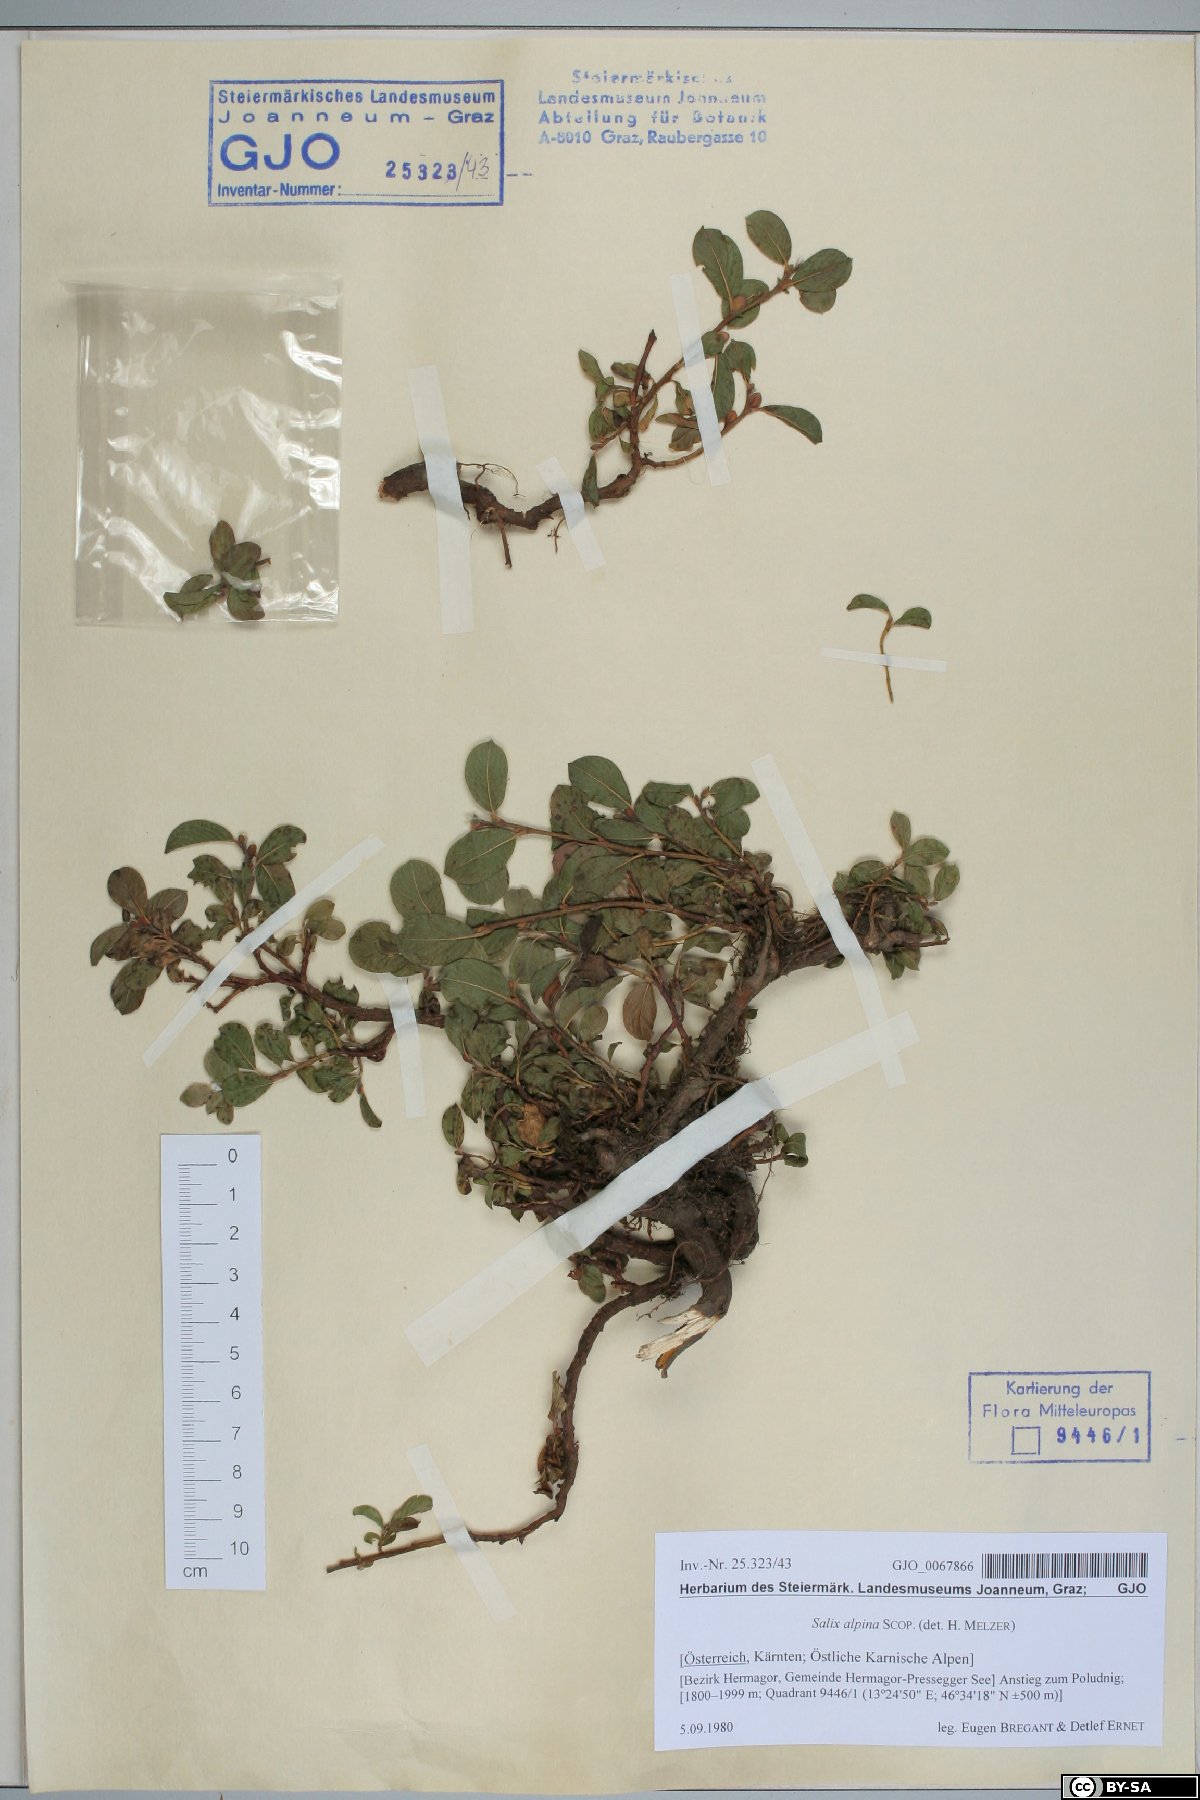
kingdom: Plantae
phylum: Tracheophyta
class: Magnoliopsida
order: Malpighiales
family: Salicaceae
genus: Salix
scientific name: Salix alpina
